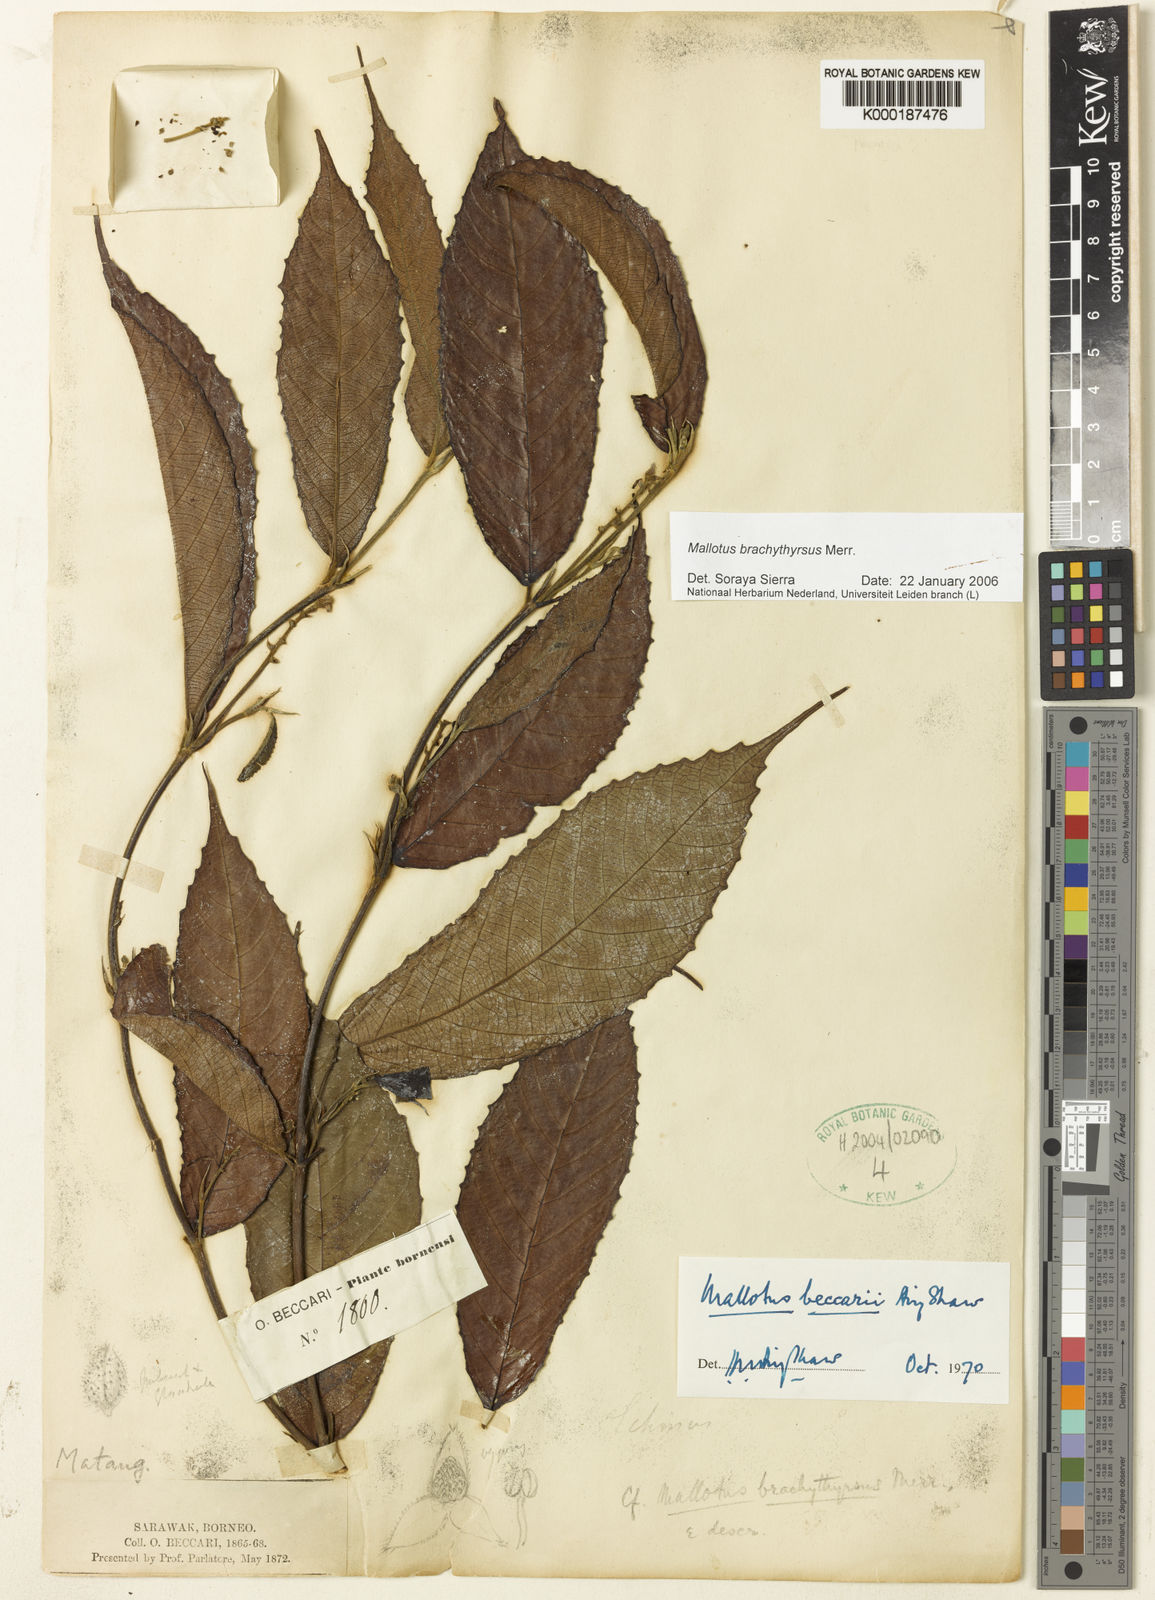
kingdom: Plantae
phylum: Tracheophyta
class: Magnoliopsida
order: Malpighiales
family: Euphorbiaceae
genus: Mallotus
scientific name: Mallotus brachythyrsus
